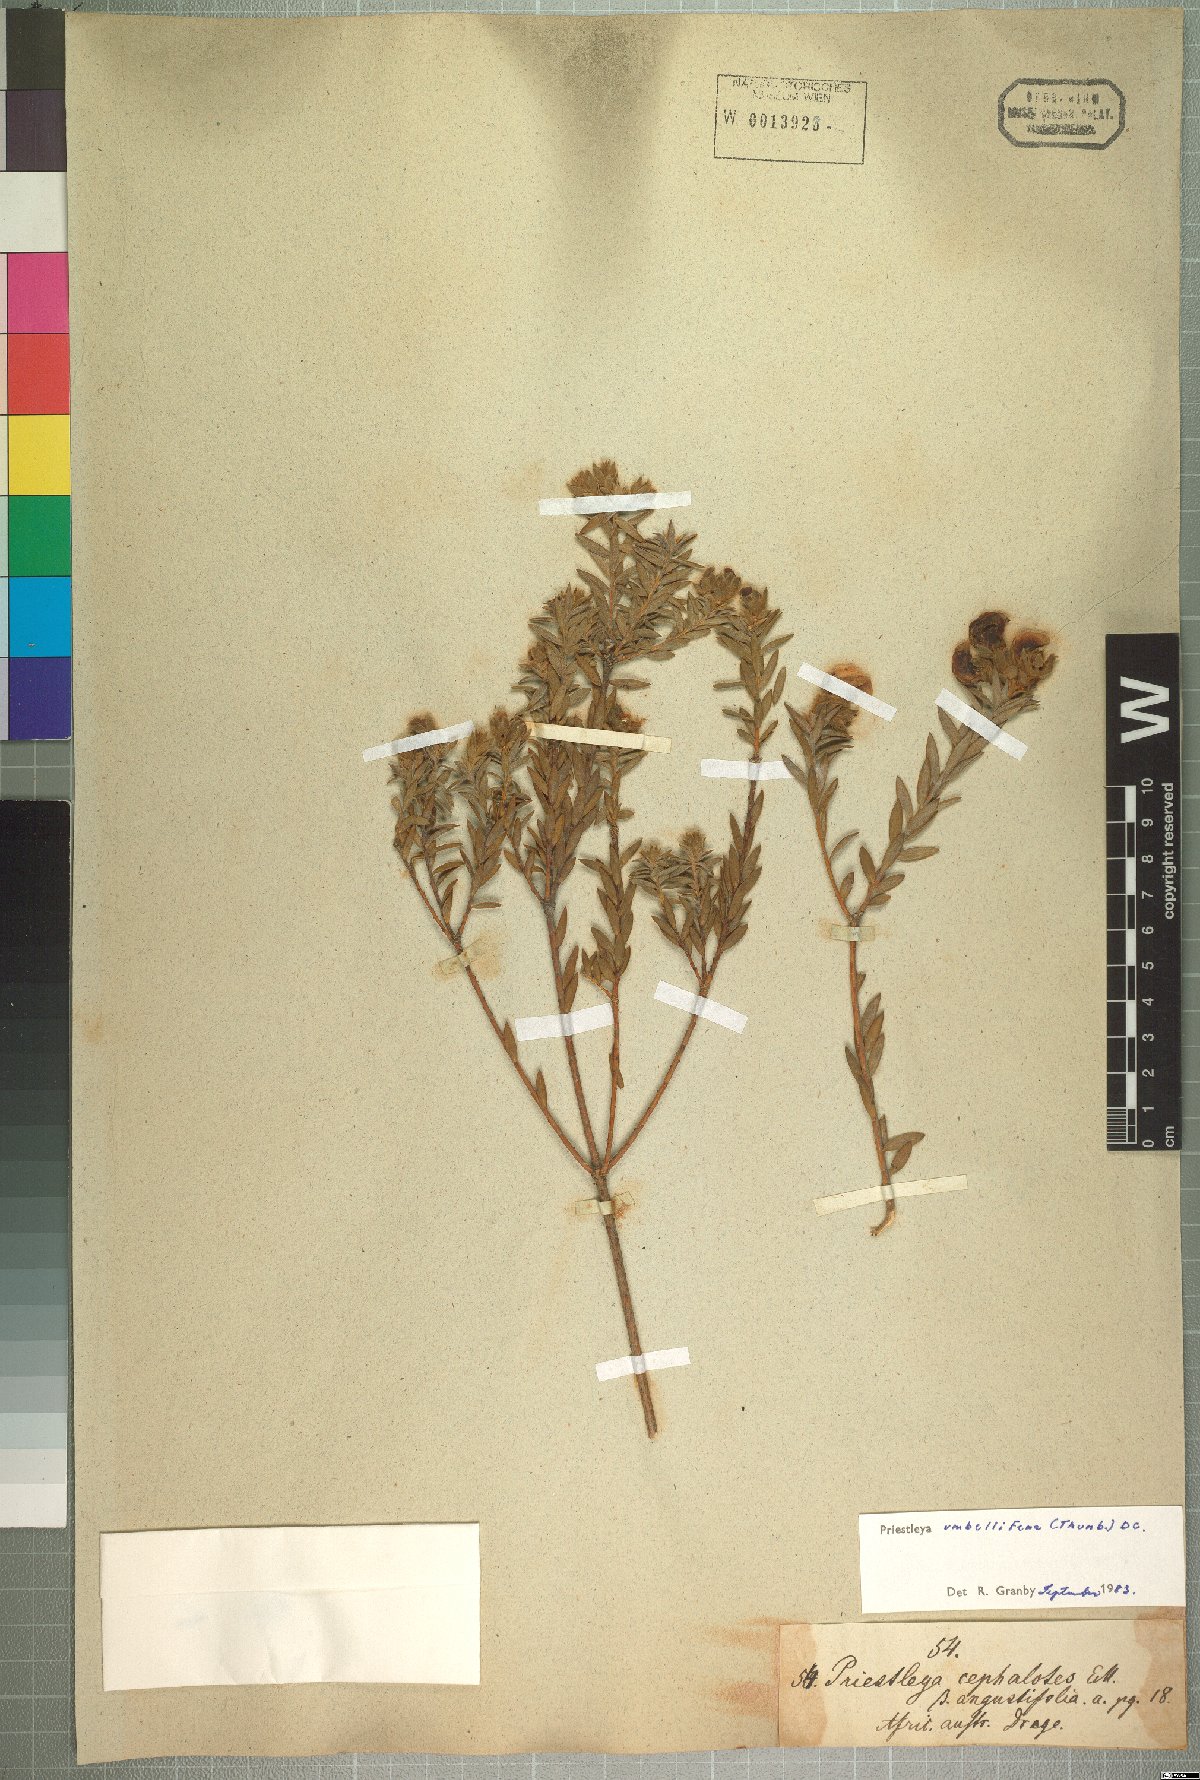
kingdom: Plantae
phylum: Tracheophyta
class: Magnoliopsida
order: Fabales
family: Fabaceae
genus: Liparia
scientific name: Liparia umbellifera
